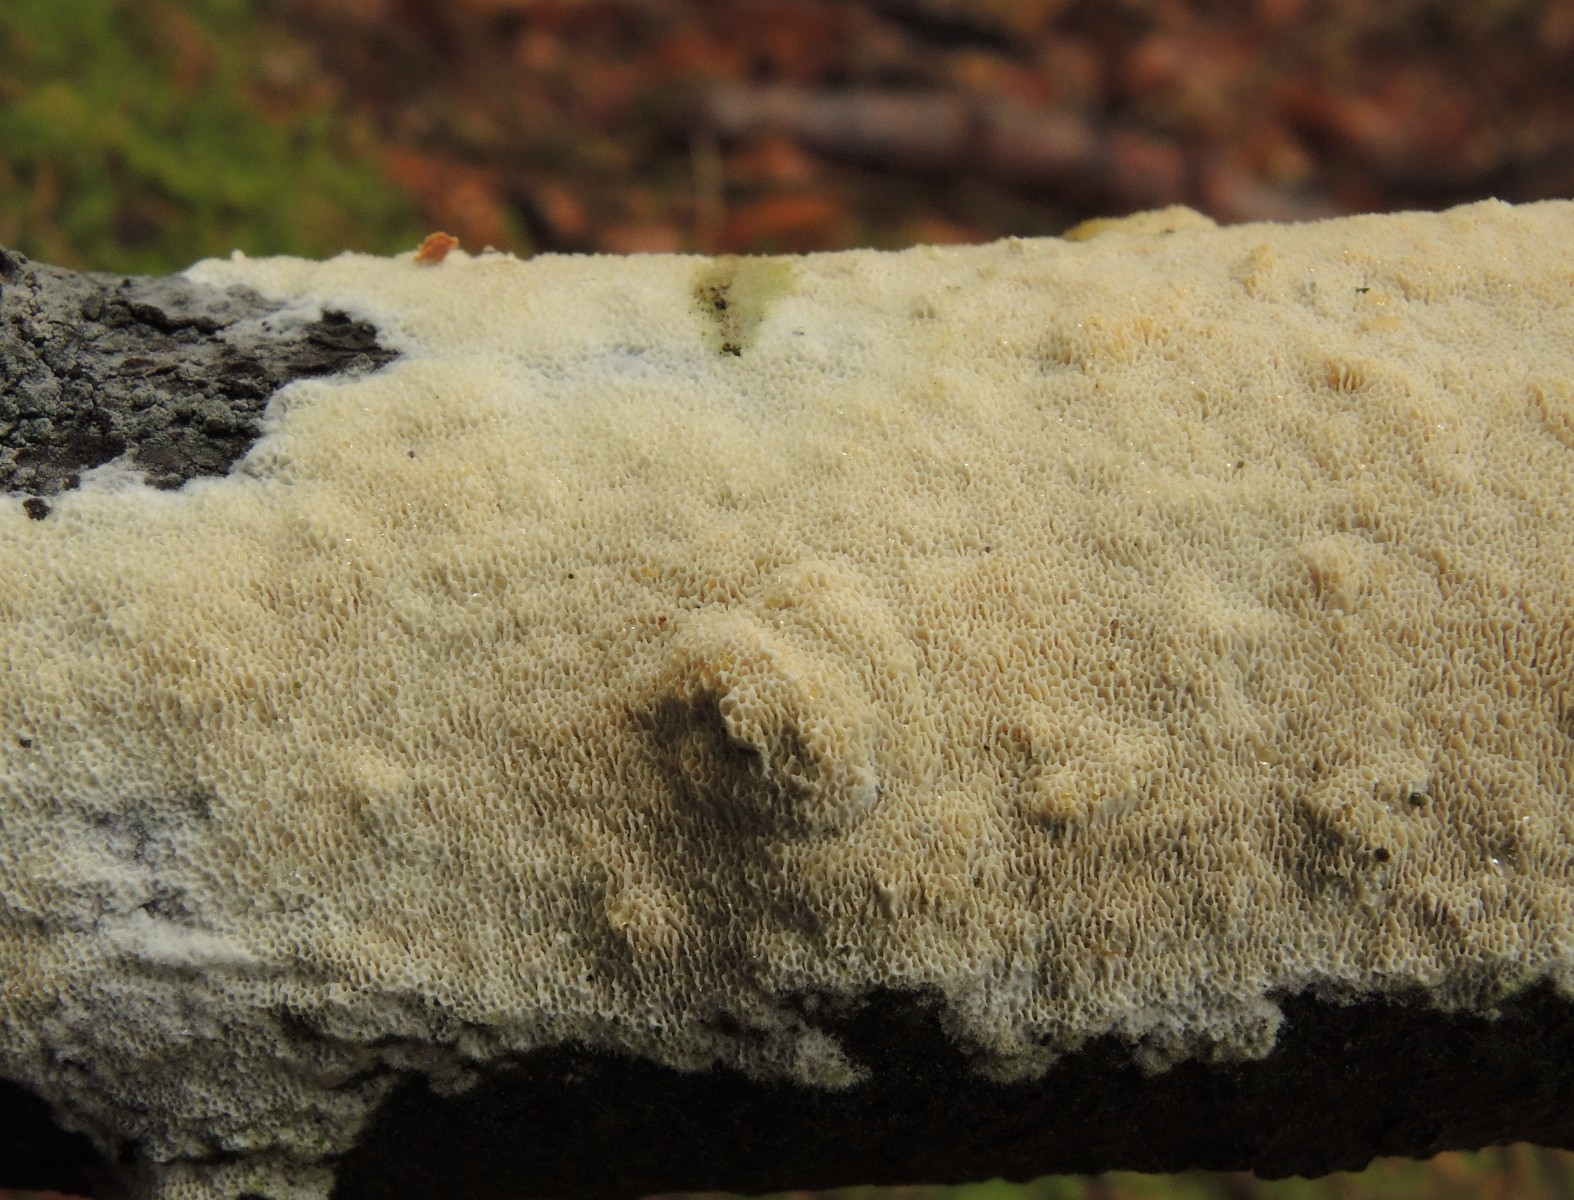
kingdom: Fungi
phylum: Basidiomycota
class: Agaricomycetes
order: Hymenochaetales
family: Schizoporaceae
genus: Xylodon
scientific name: Xylodon subtropicus
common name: labyrint-tandsvamp
